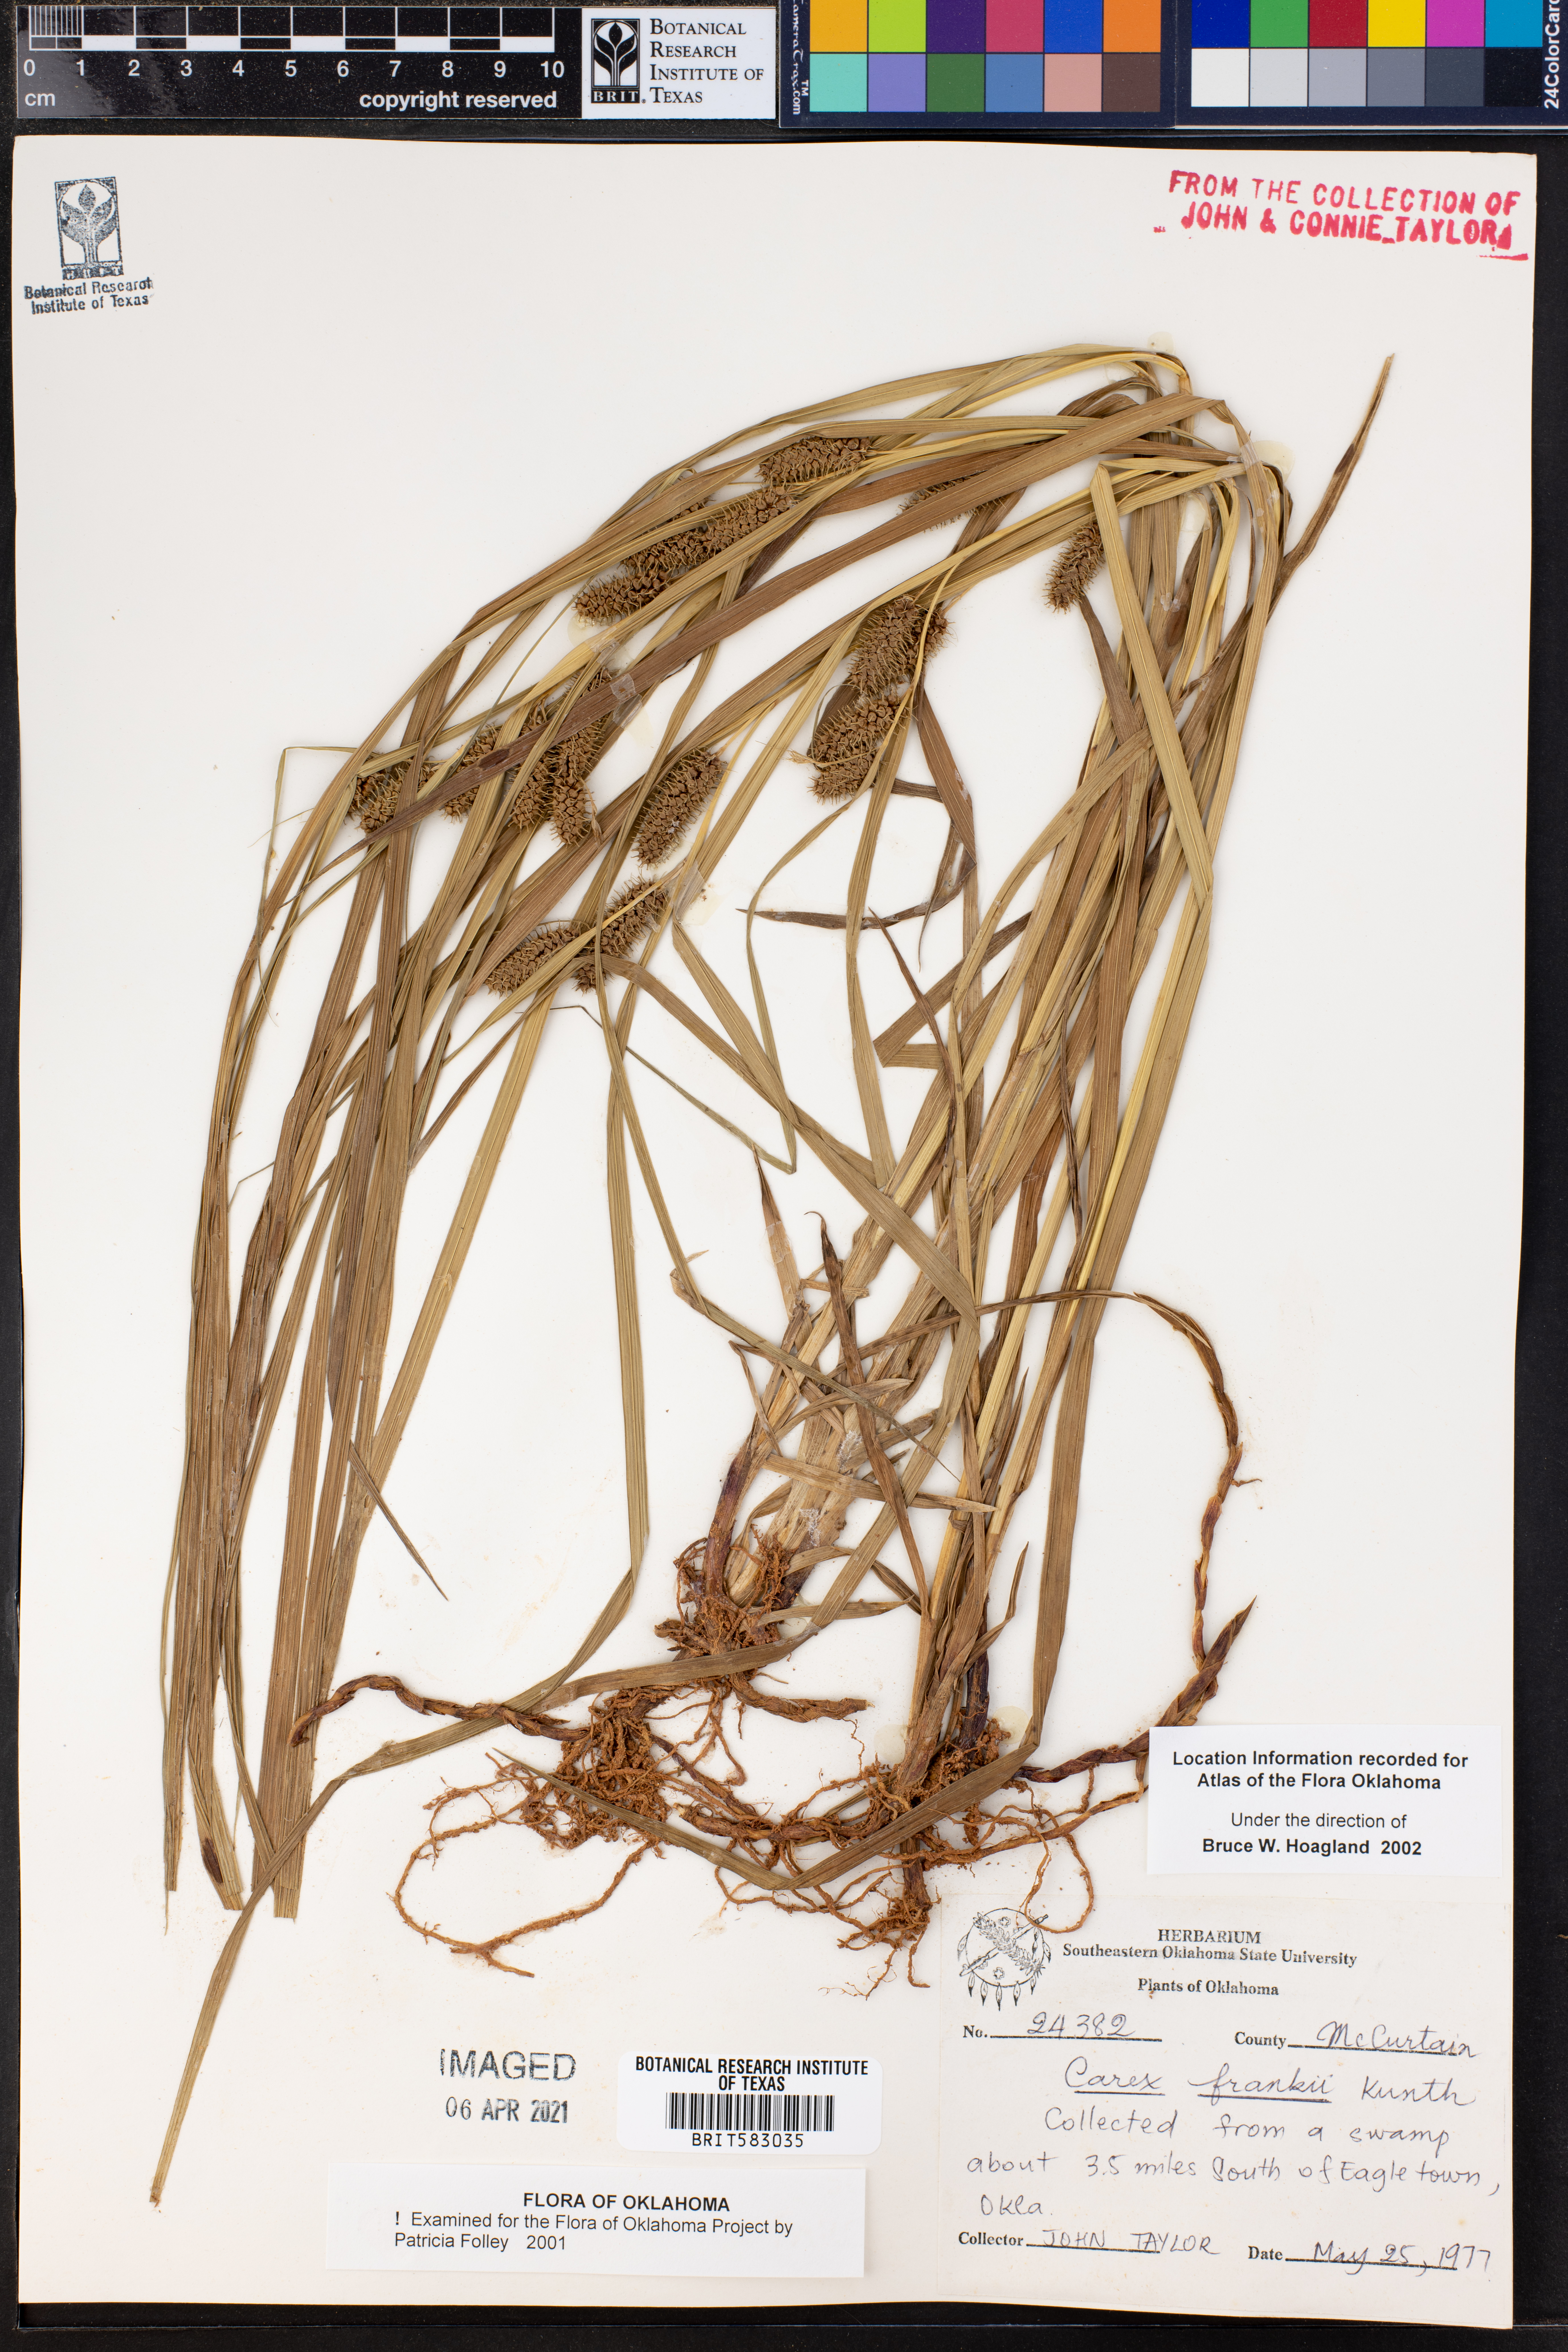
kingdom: Plantae
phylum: Tracheophyta
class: Liliopsida
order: Poales
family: Cyperaceae
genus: Carex
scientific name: Carex frankii
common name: Frank's sedge
